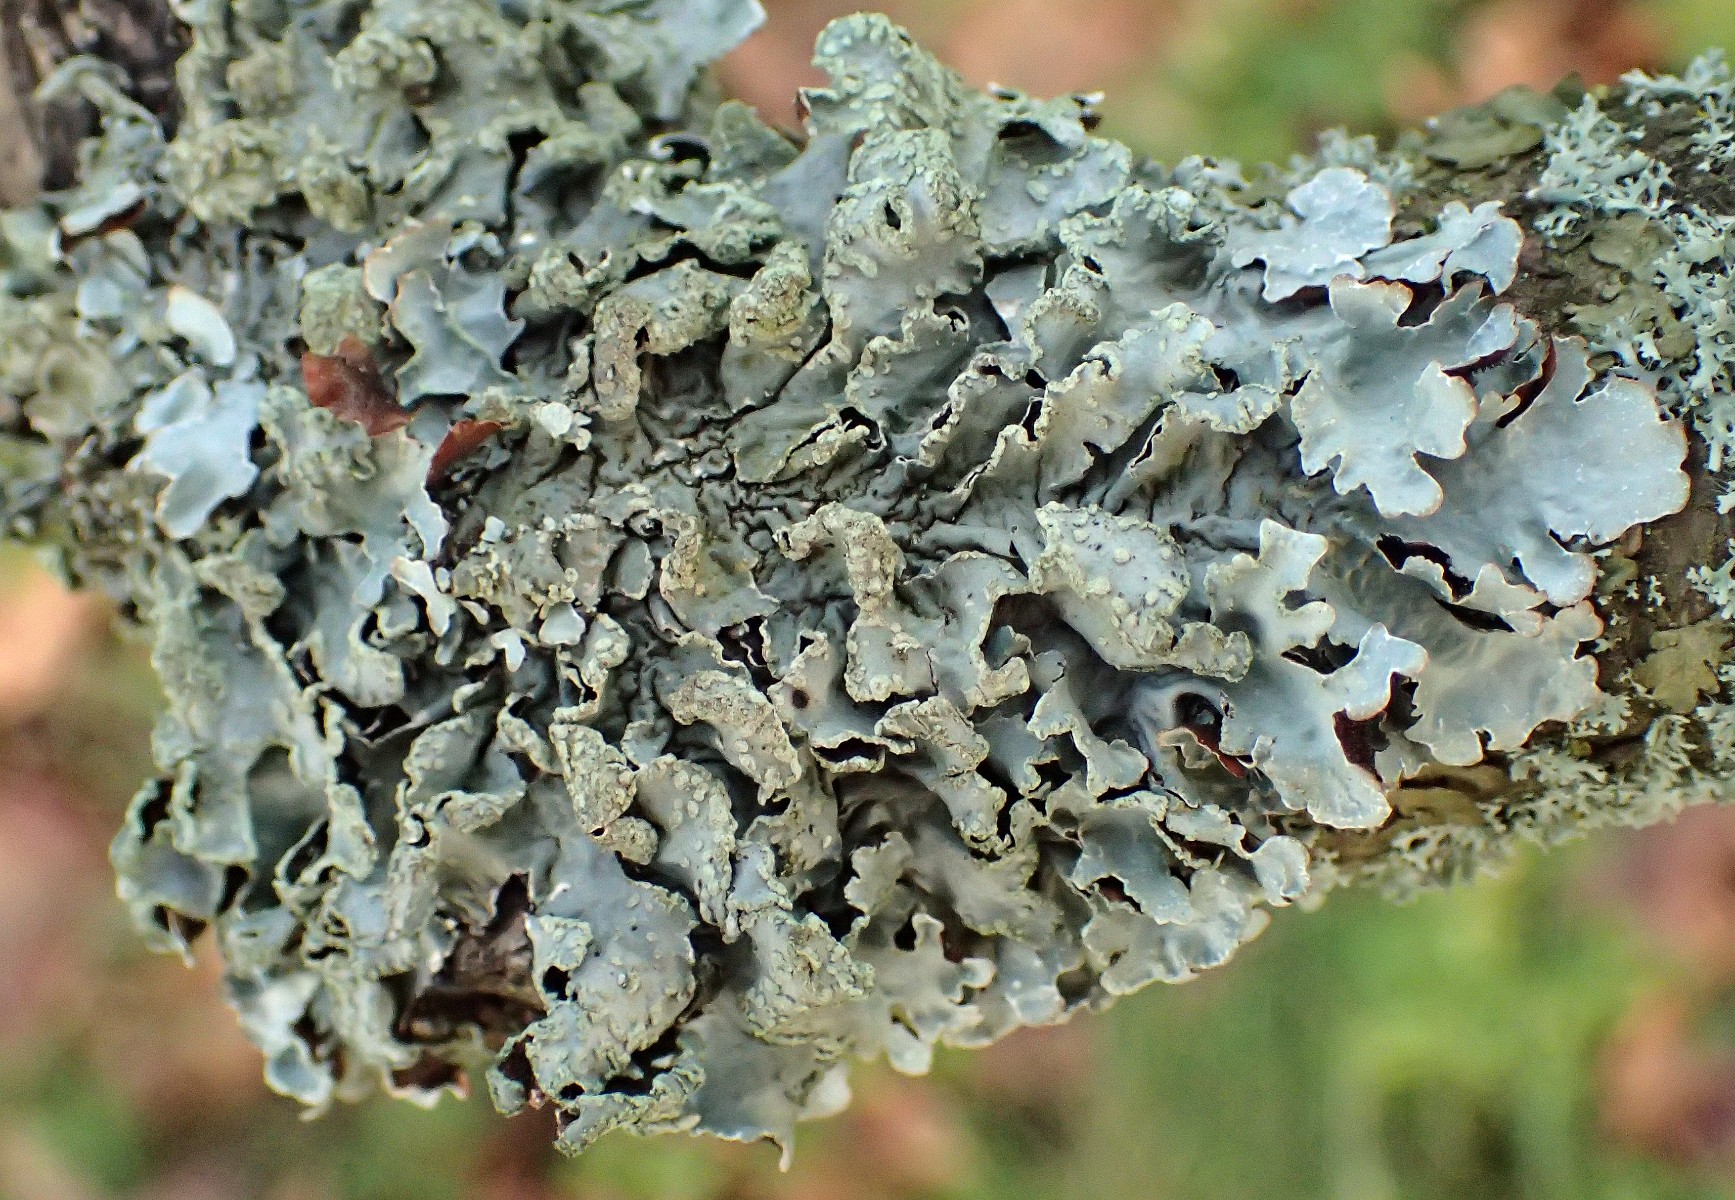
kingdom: Fungi
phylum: Ascomycota
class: Lecanoromycetes
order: Lecanorales
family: Parmeliaceae
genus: Parmelia
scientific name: Parmelia sulcata
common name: rynket skållav
